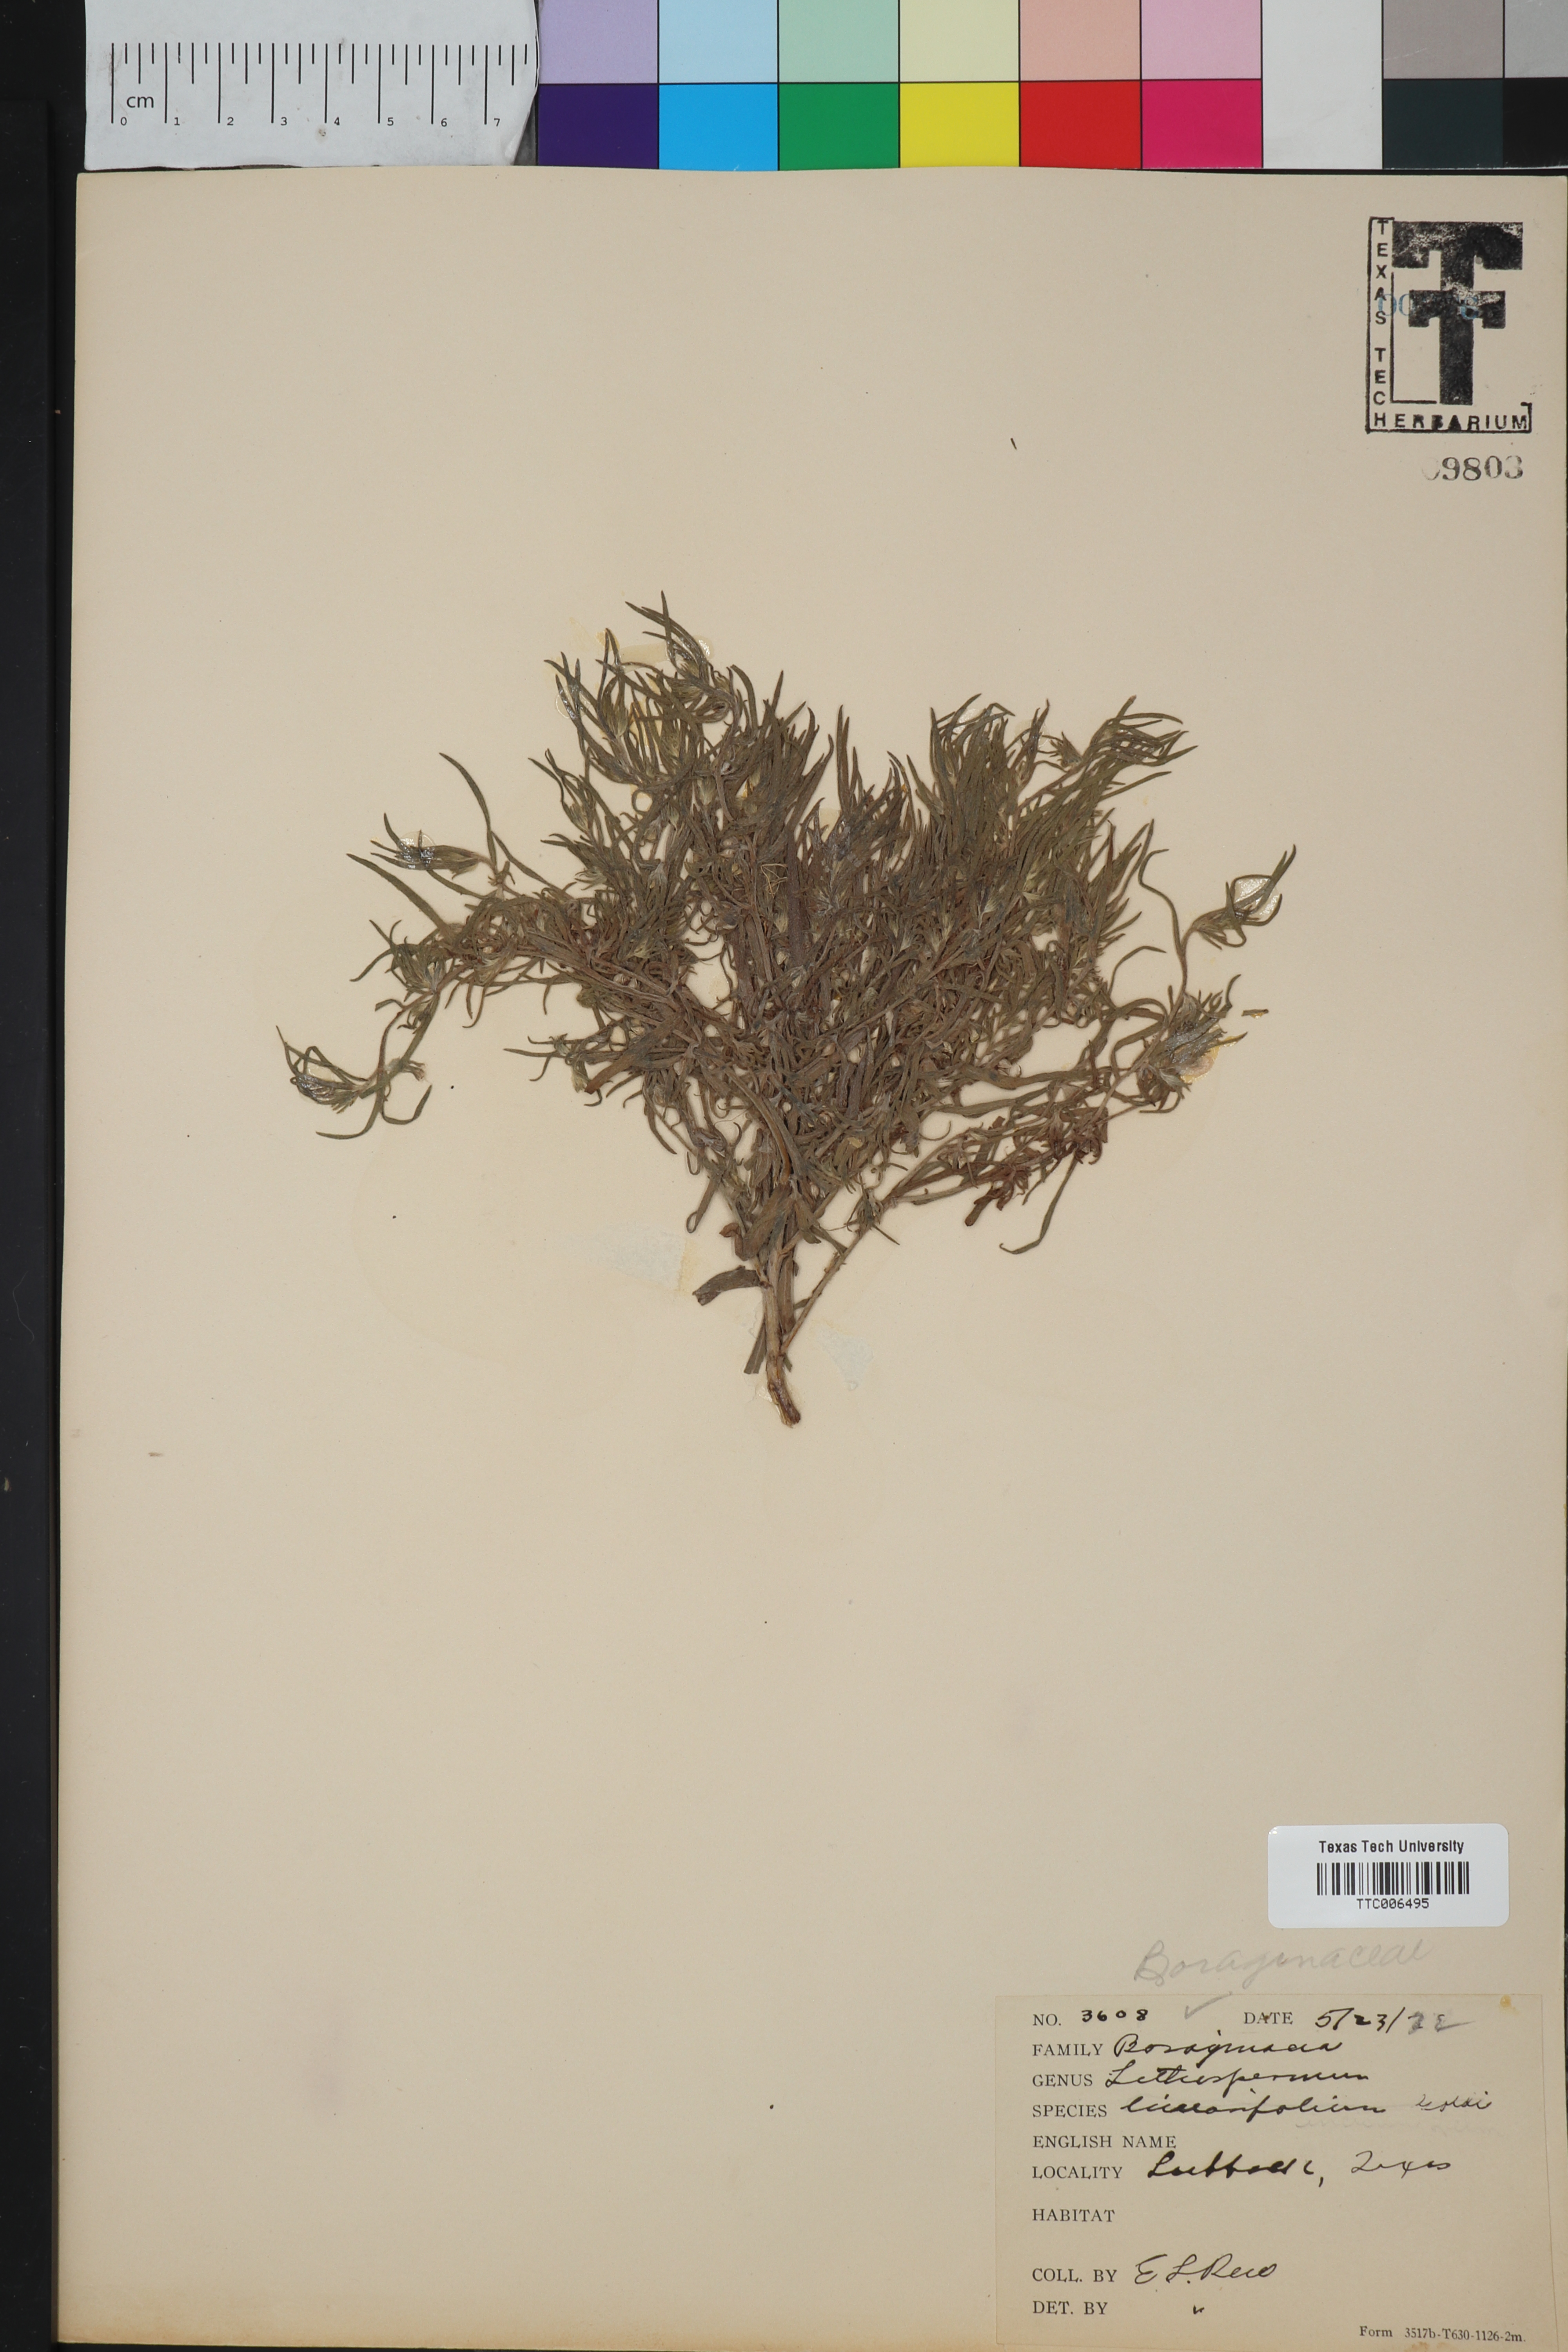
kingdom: Plantae
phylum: Tracheophyta
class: Magnoliopsida
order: Boraginales
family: Boraginaceae
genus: Lithospermum
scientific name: Lithospermum incisum
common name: Fringed gromwell
